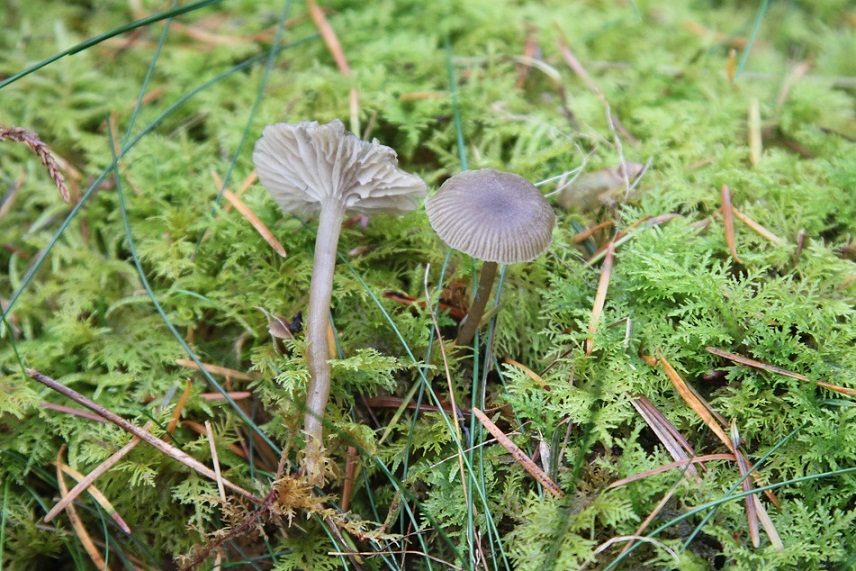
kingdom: Fungi
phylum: Basidiomycota
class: Agaricomycetes
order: Agaricales
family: Tricholomataceae
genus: Omphaliaster
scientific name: Omphaliaster asterosporus
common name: narrehat
